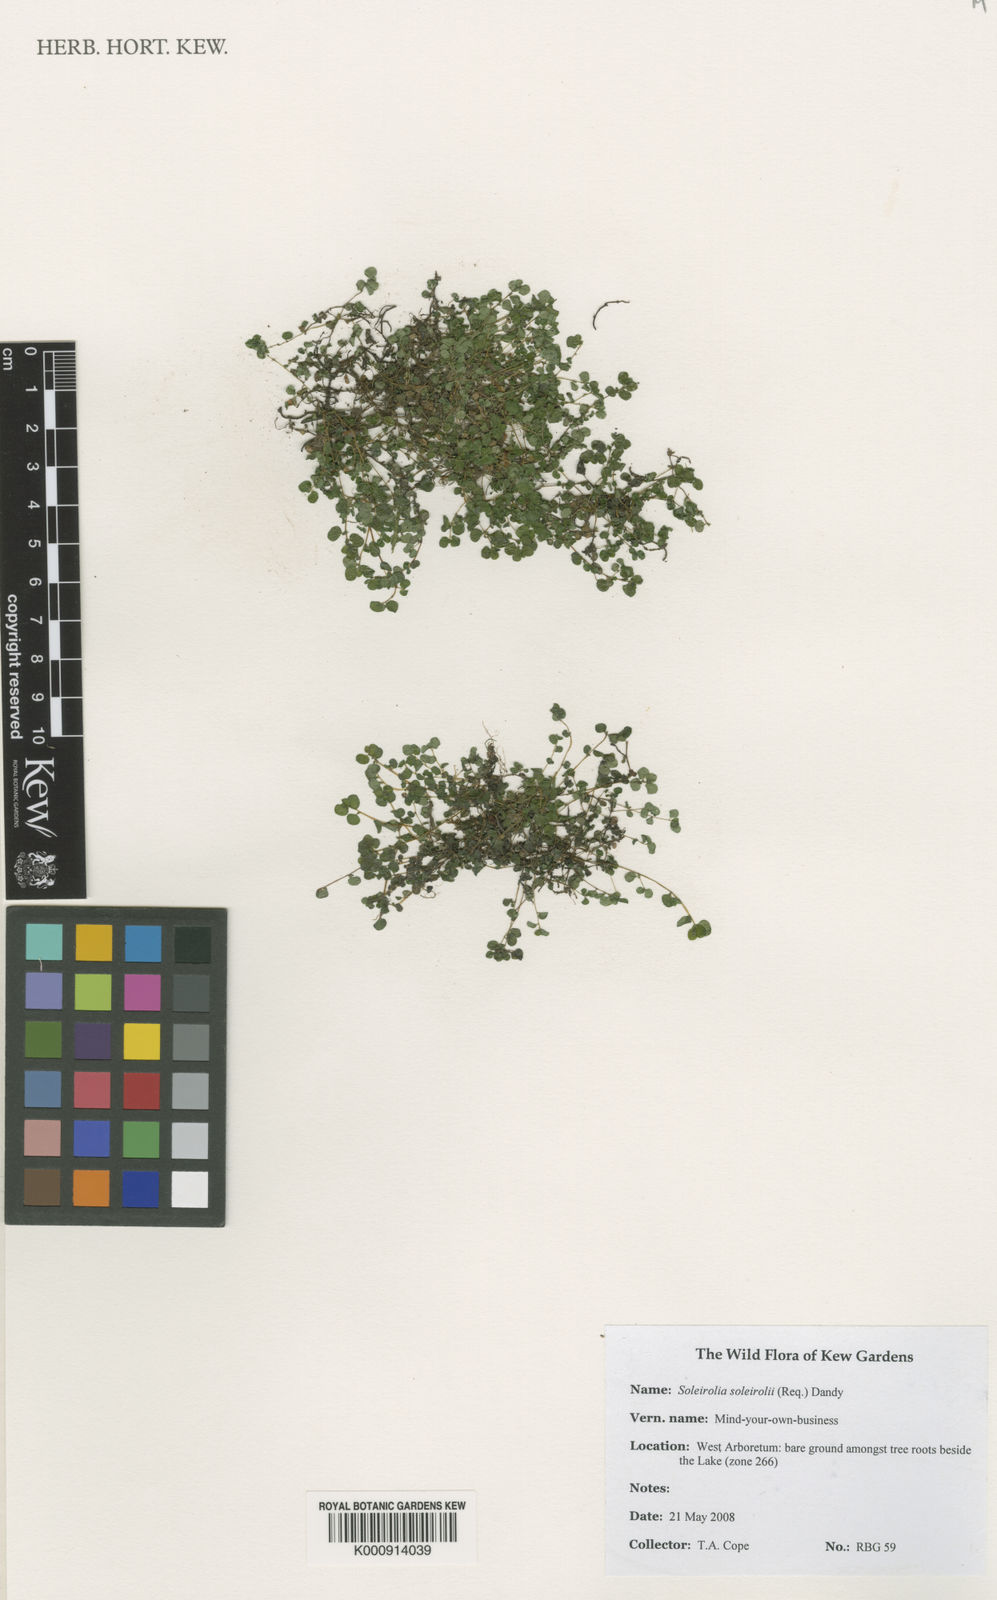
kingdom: Plantae
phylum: Tracheophyta
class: Magnoliopsida
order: Rosales
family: Urticaceae
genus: Soleirolia
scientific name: Soleirolia soleirolii
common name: Mind-your-own-business
